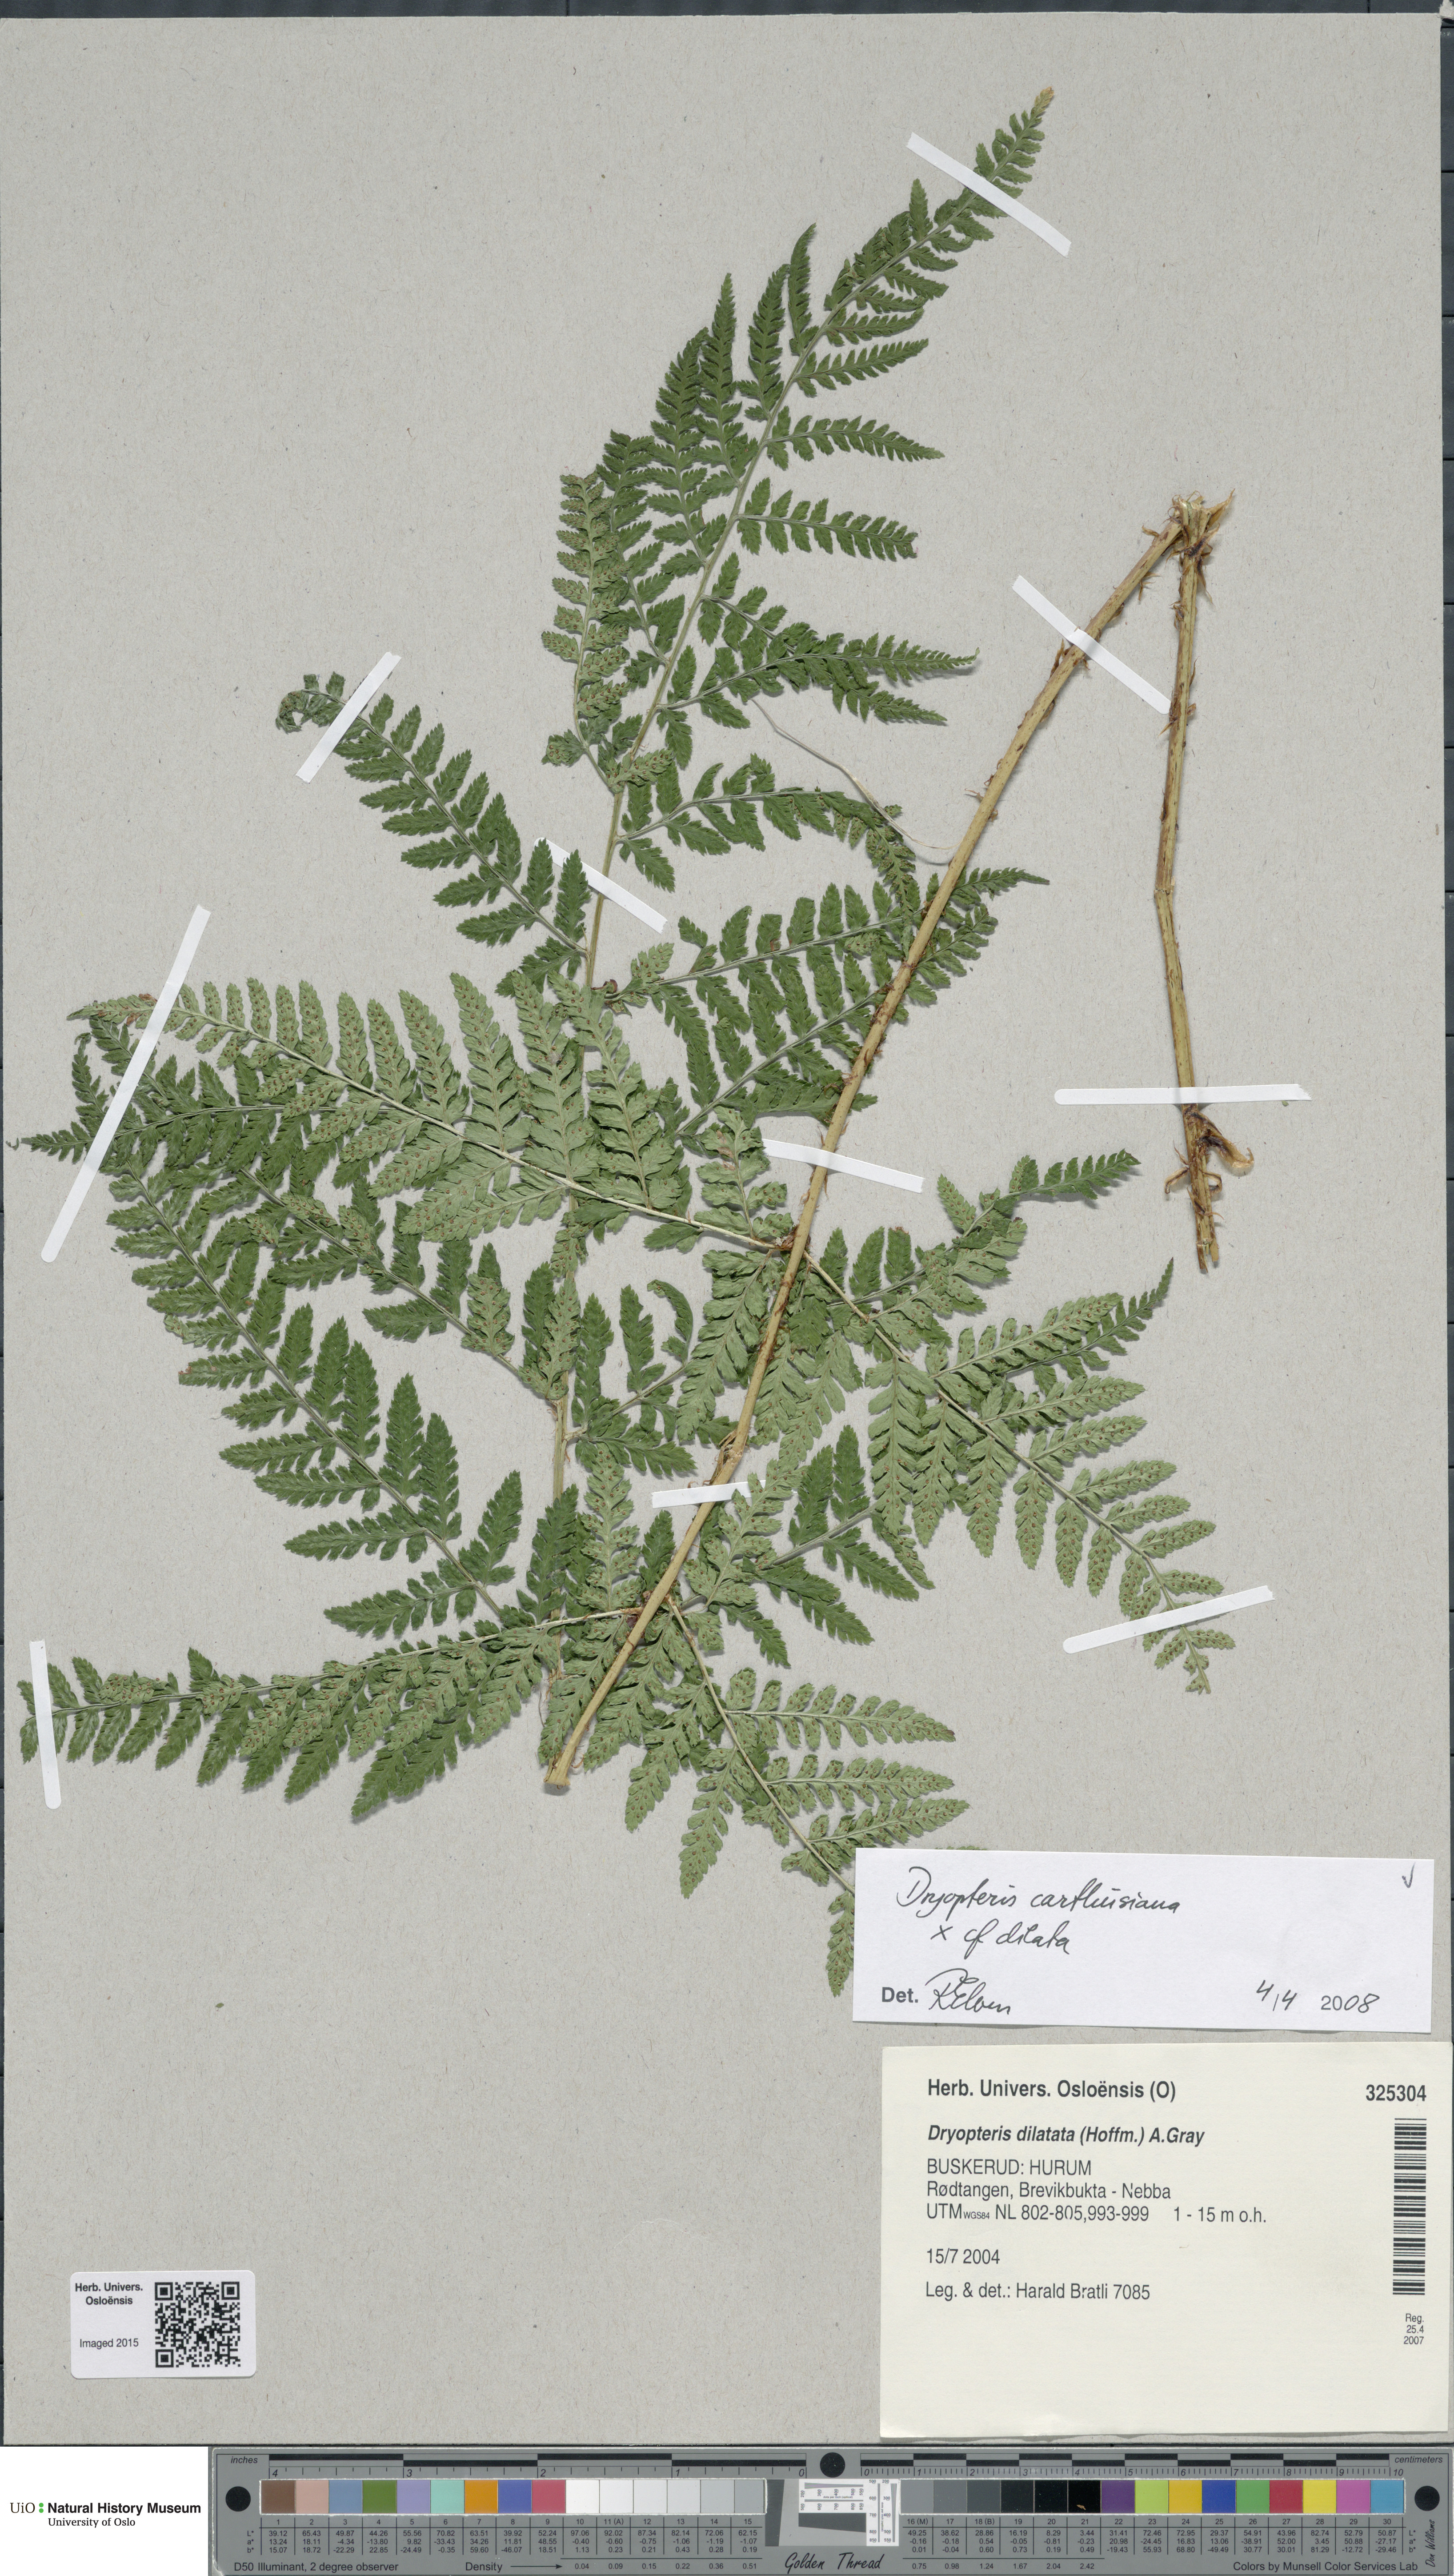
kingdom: Plantae
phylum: Tracheophyta
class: Polypodiopsida
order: Polypodiales
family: Dryopteridaceae
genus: Dryopteris
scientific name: Dryopteris
